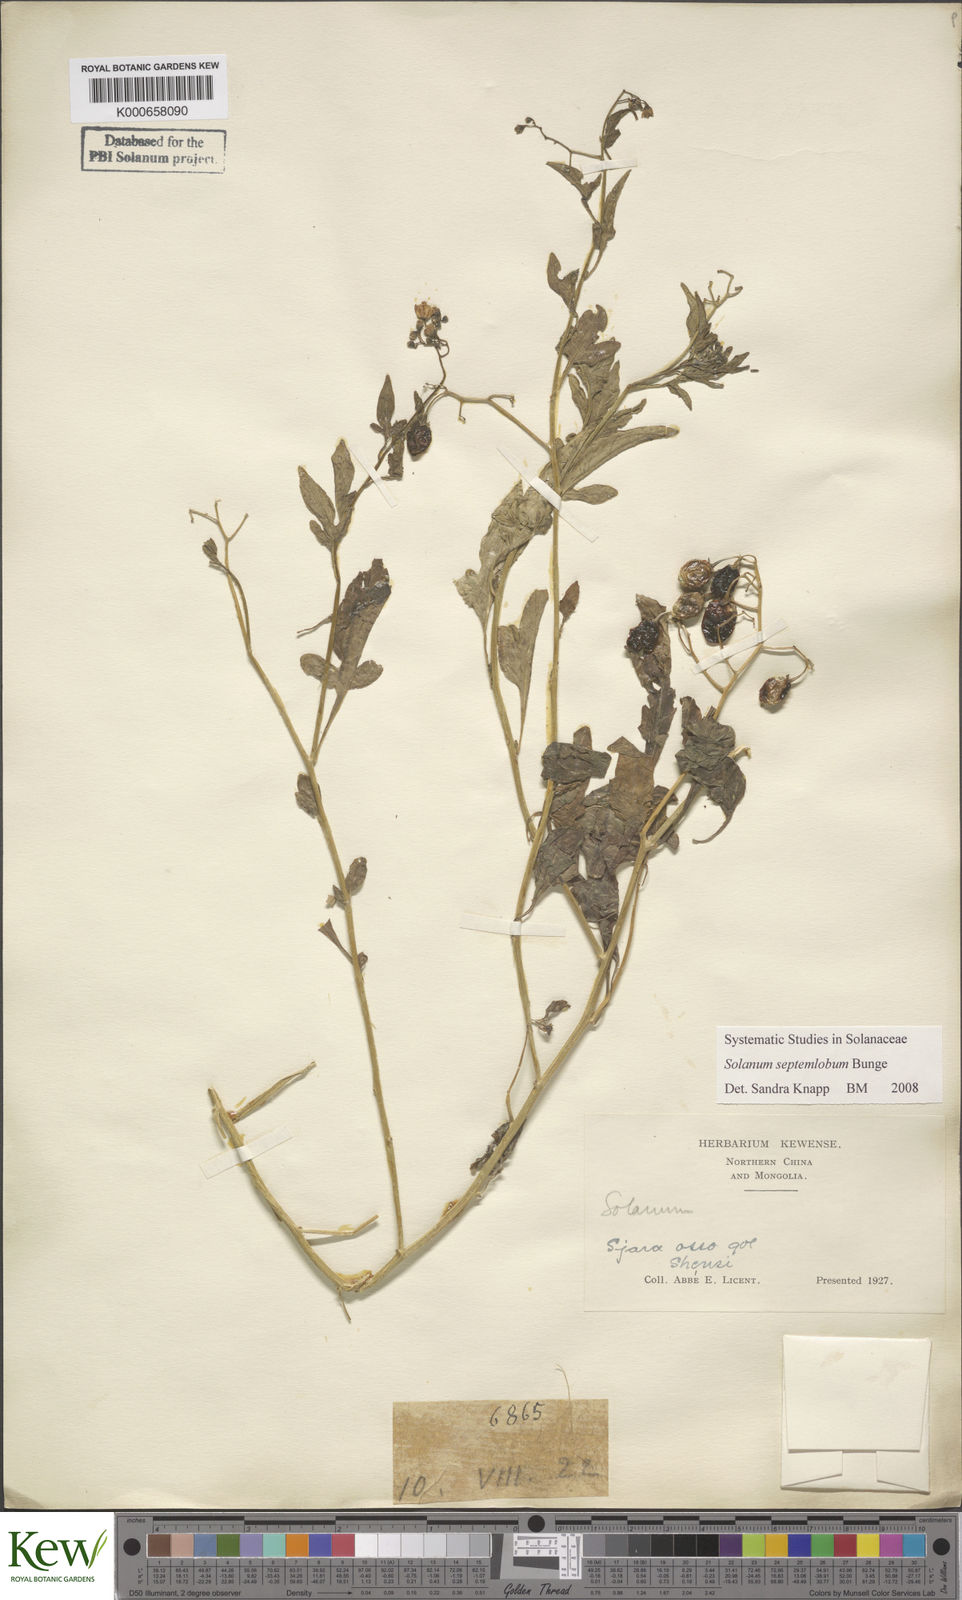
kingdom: Plantae
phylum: Tracheophyta
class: Magnoliopsida
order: Solanales
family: Solanaceae
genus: Solanum
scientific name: Solanum septemlobum
